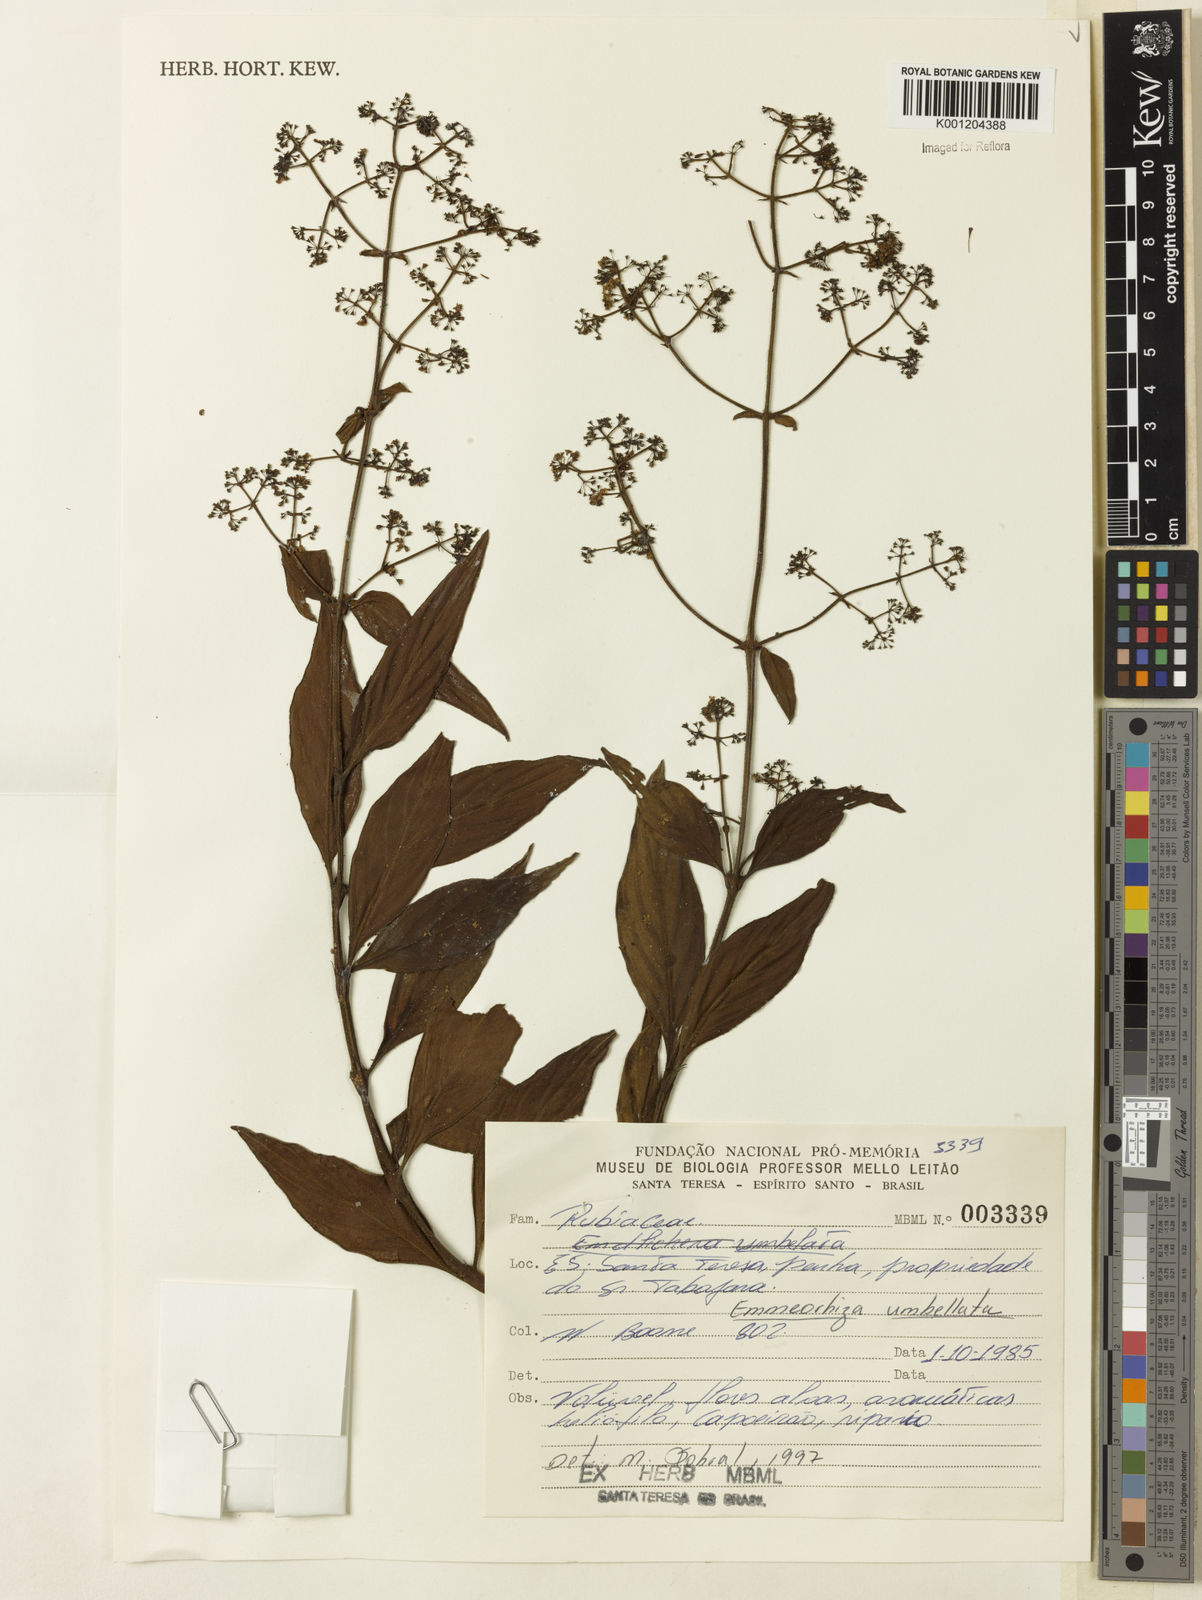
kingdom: Plantae
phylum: Tracheophyta
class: Magnoliopsida
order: Gentianales
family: Rubiaceae
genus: Emmeorhiza
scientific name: Emmeorhiza umbellata
